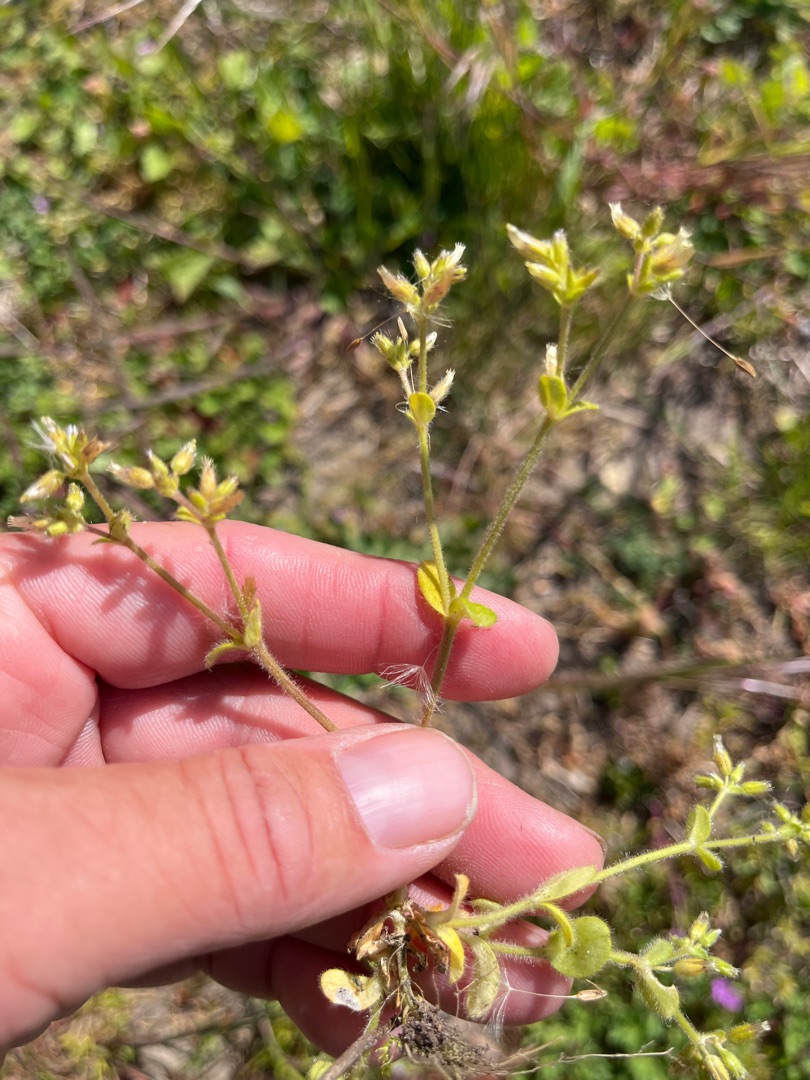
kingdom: Plantae
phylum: Tracheophyta
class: Magnoliopsida
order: Caryophyllales
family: Caryophyllaceae
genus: Cerastium
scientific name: Cerastium glomeratum
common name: Opret hønsetarm
